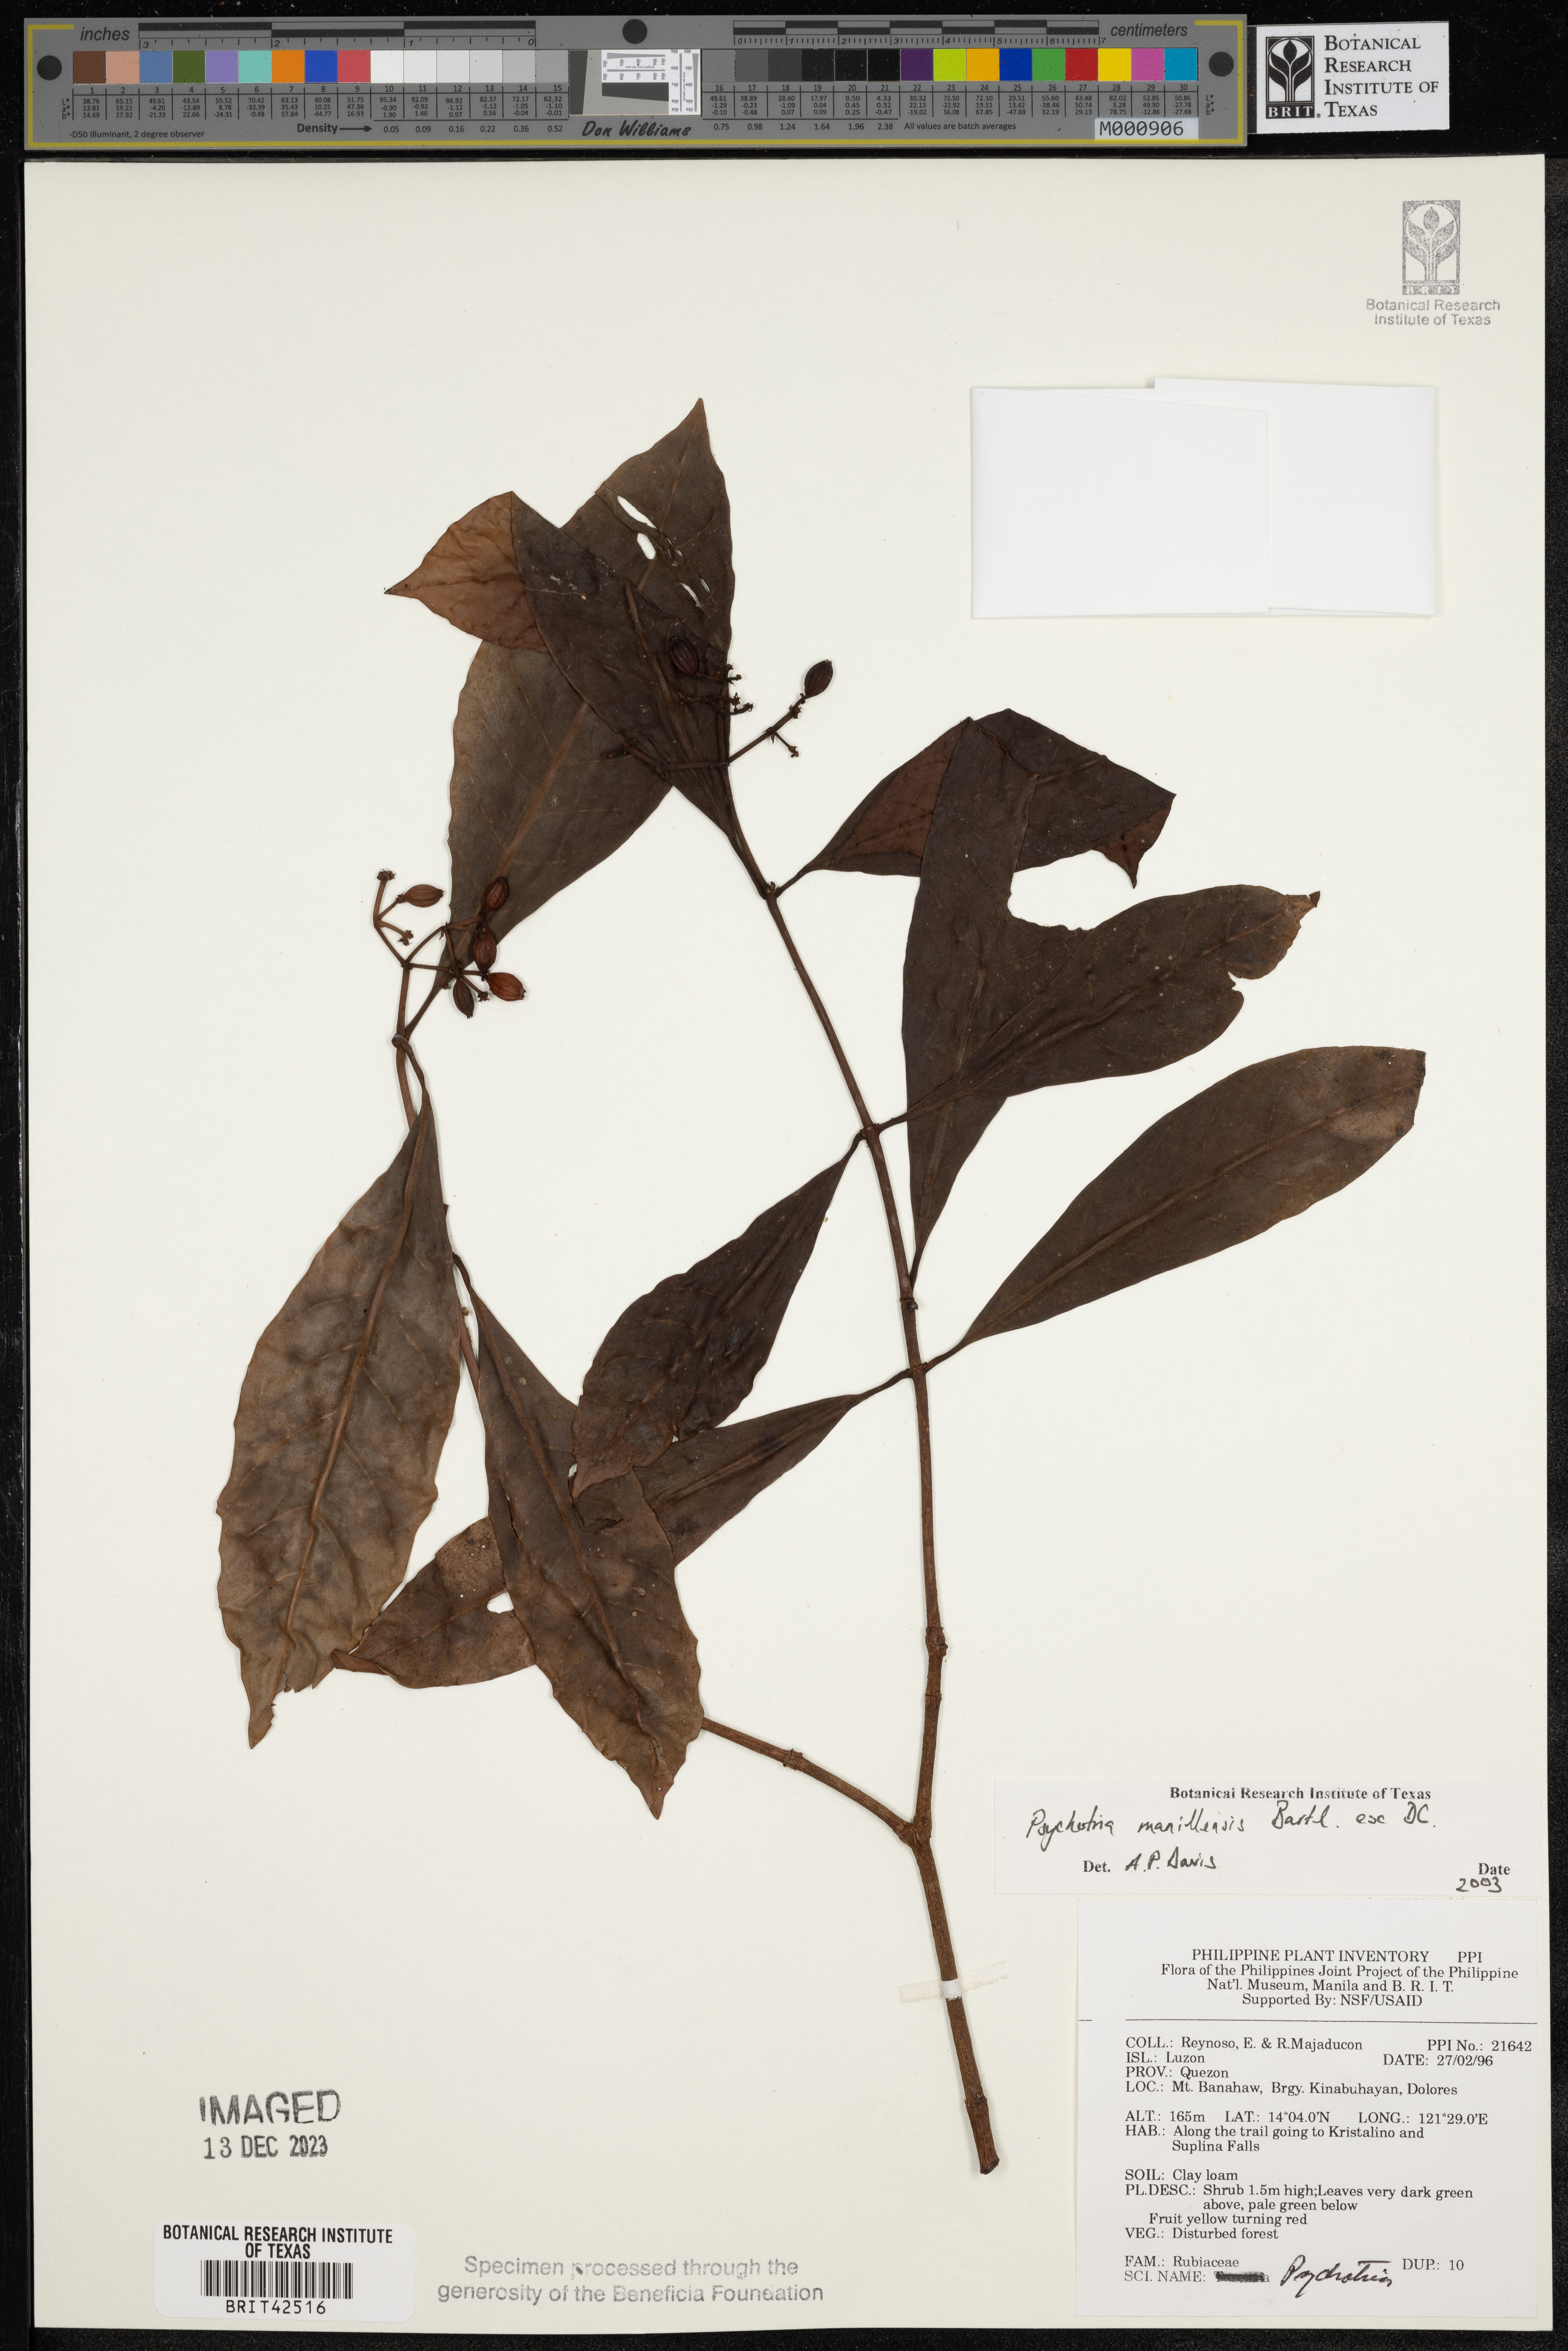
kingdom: Plantae
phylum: Tracheophyta
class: Magnoliopsida
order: Gentianales
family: Rubiaceae
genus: Psychotria
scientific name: Psychotria manillensis
